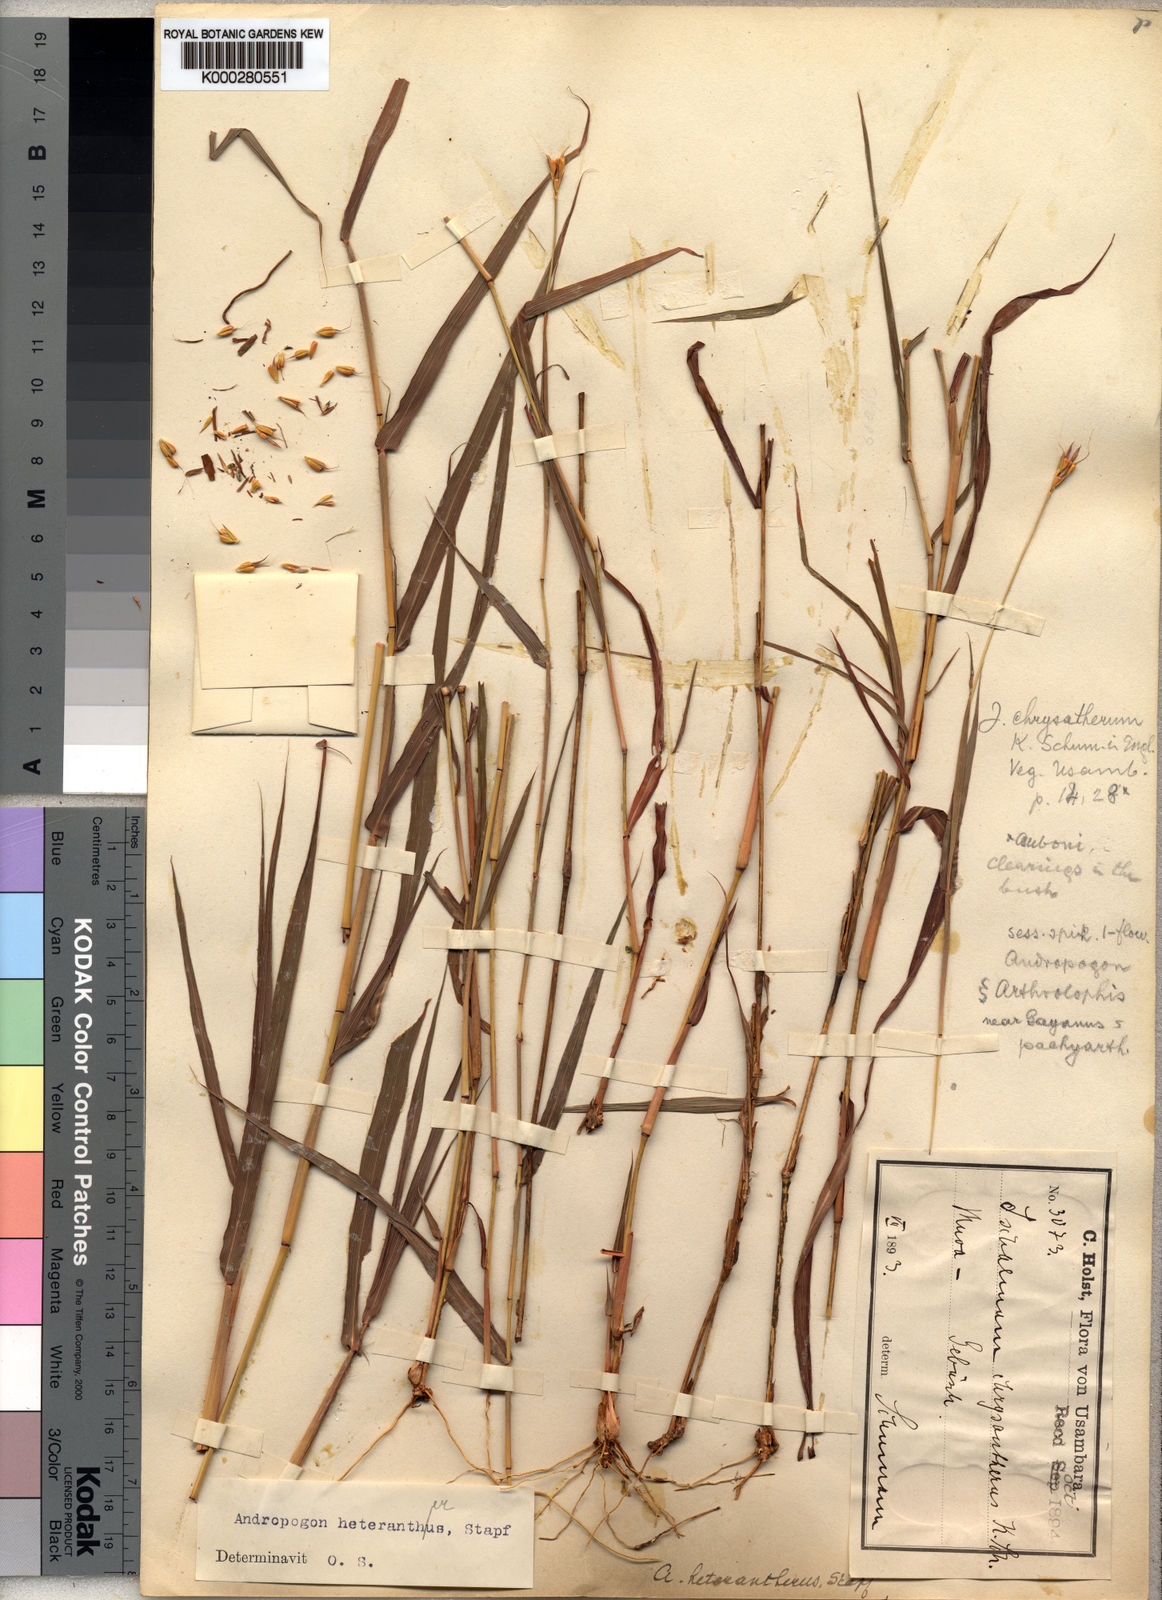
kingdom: Plantae
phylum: Tracheophyta
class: Liliopsida
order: Poales
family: Poaceae
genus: Andropogon
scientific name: Andropogon heterantherus
